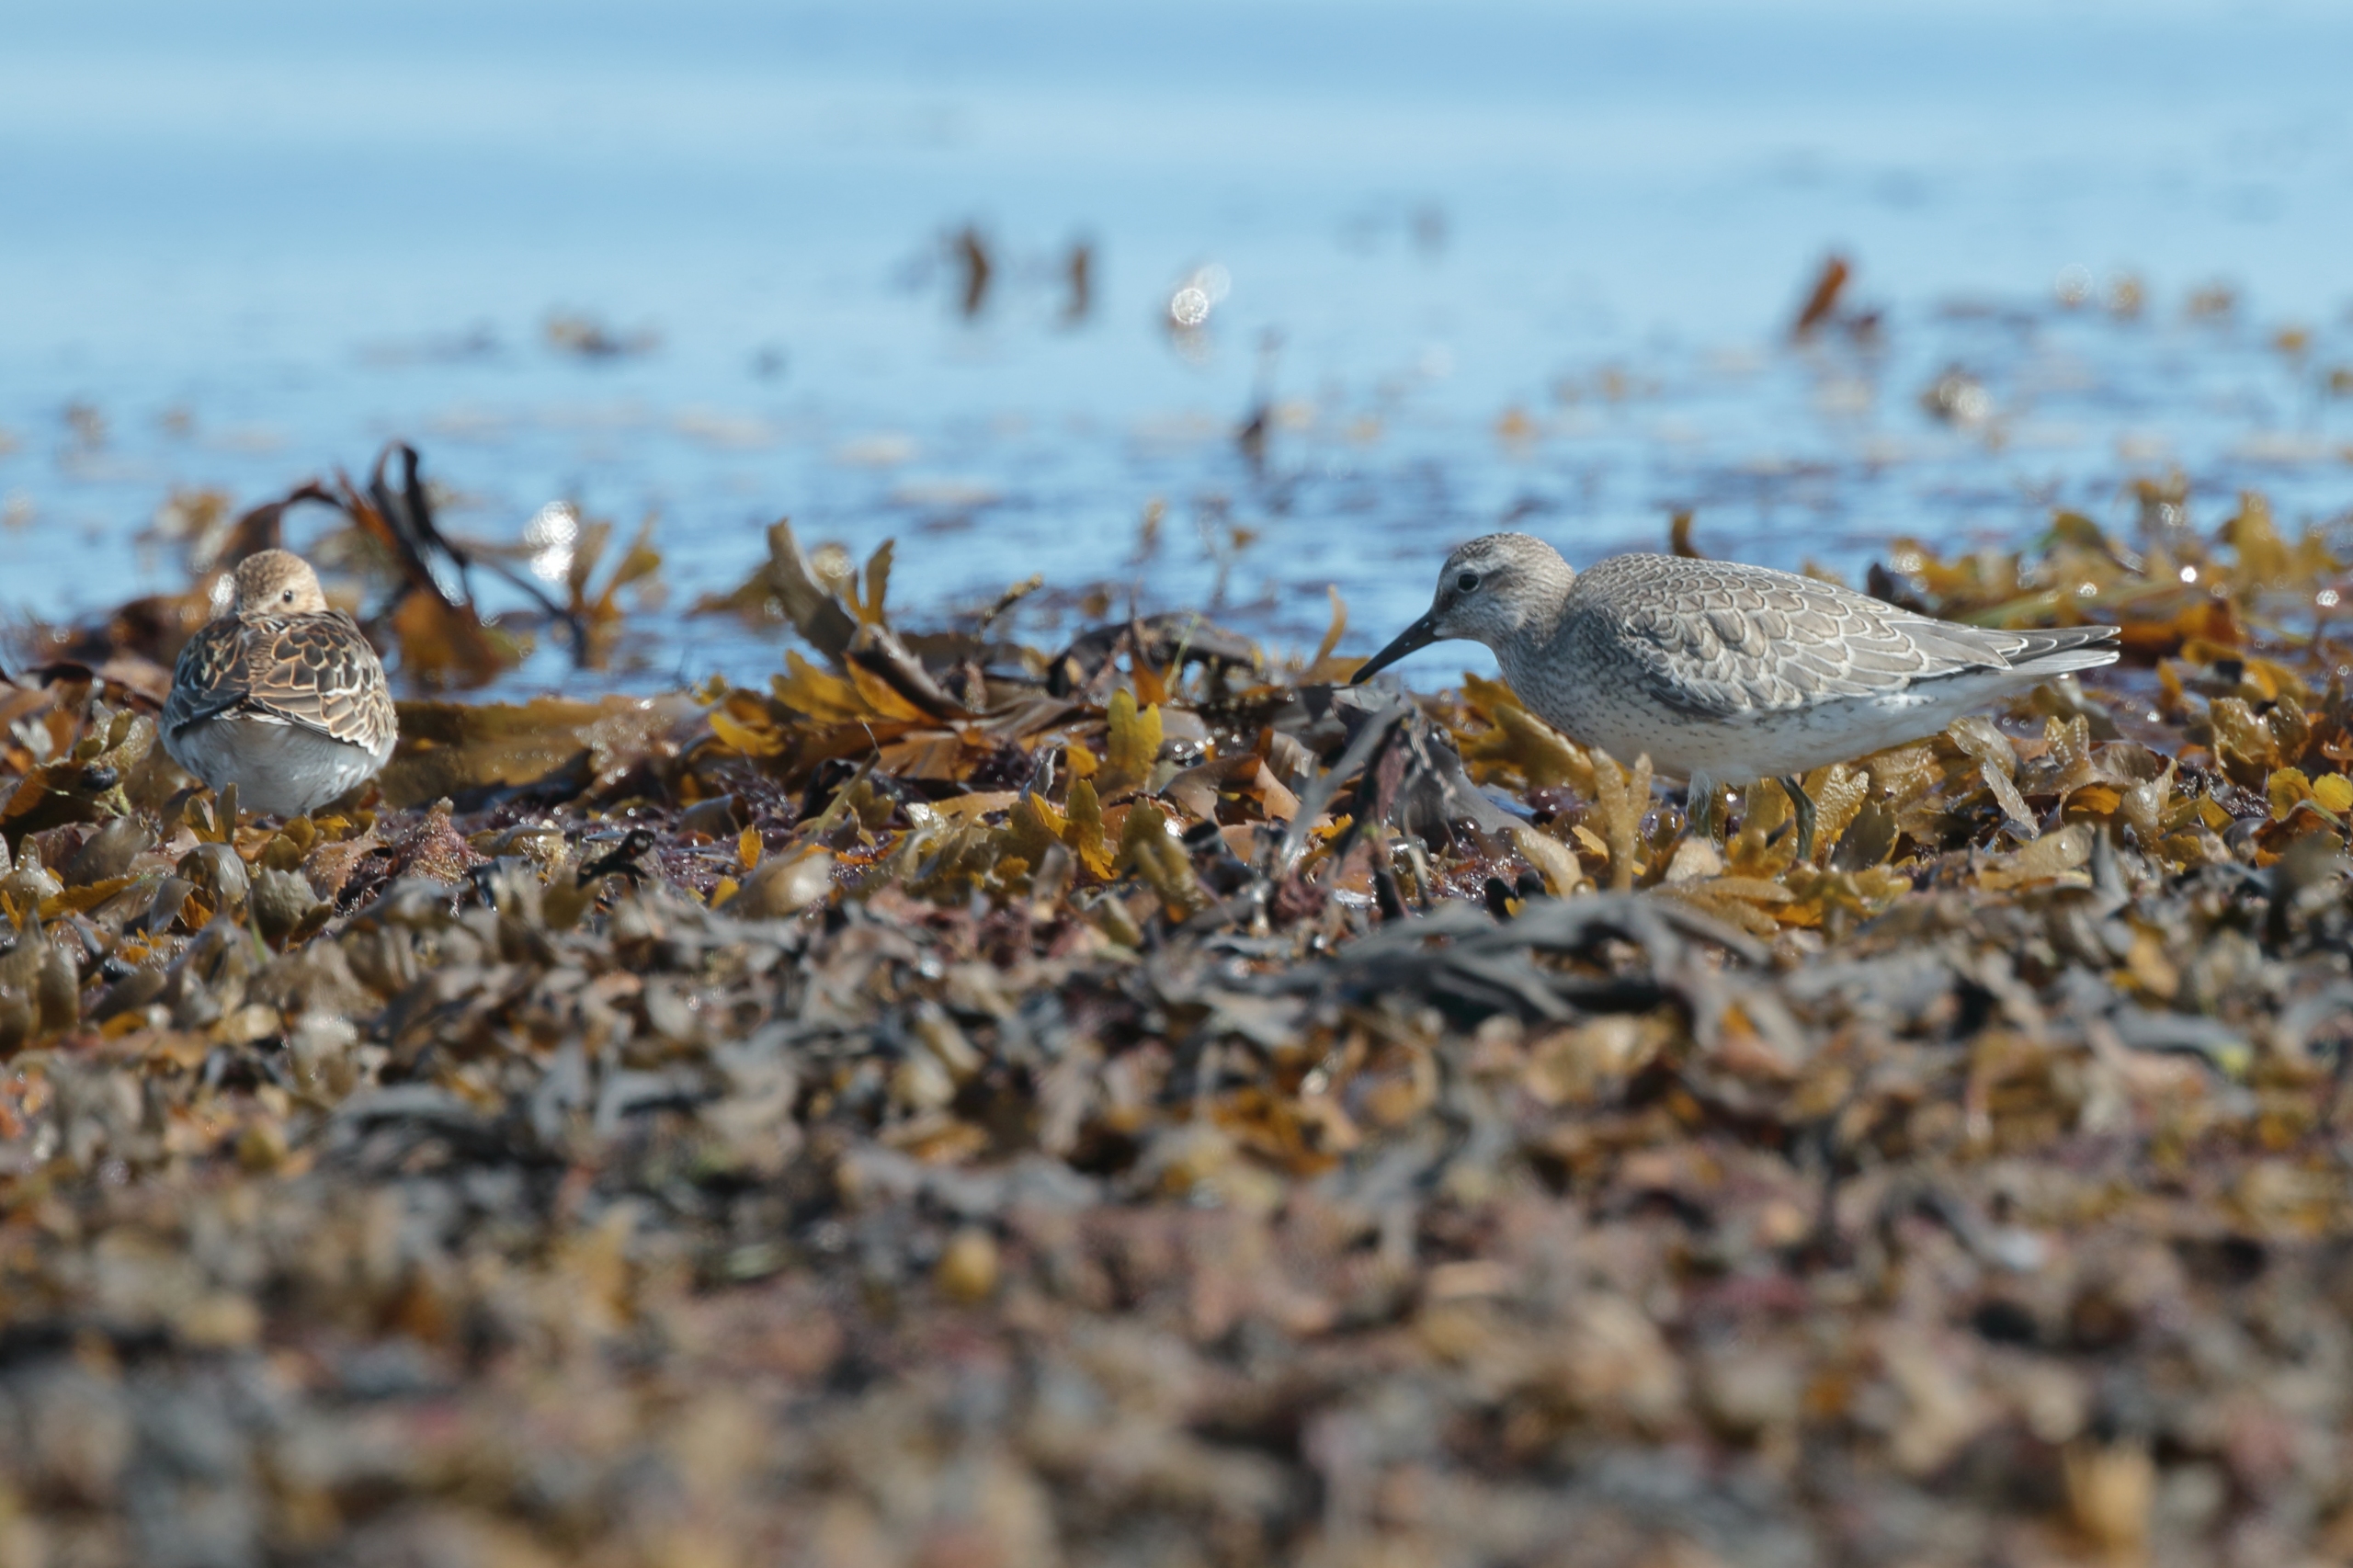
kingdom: Animalia
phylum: Chordata
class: Aves
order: Charadriiformes
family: Scolopacidae
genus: Calidris
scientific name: Calidris canutus
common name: Islandsk ryle
